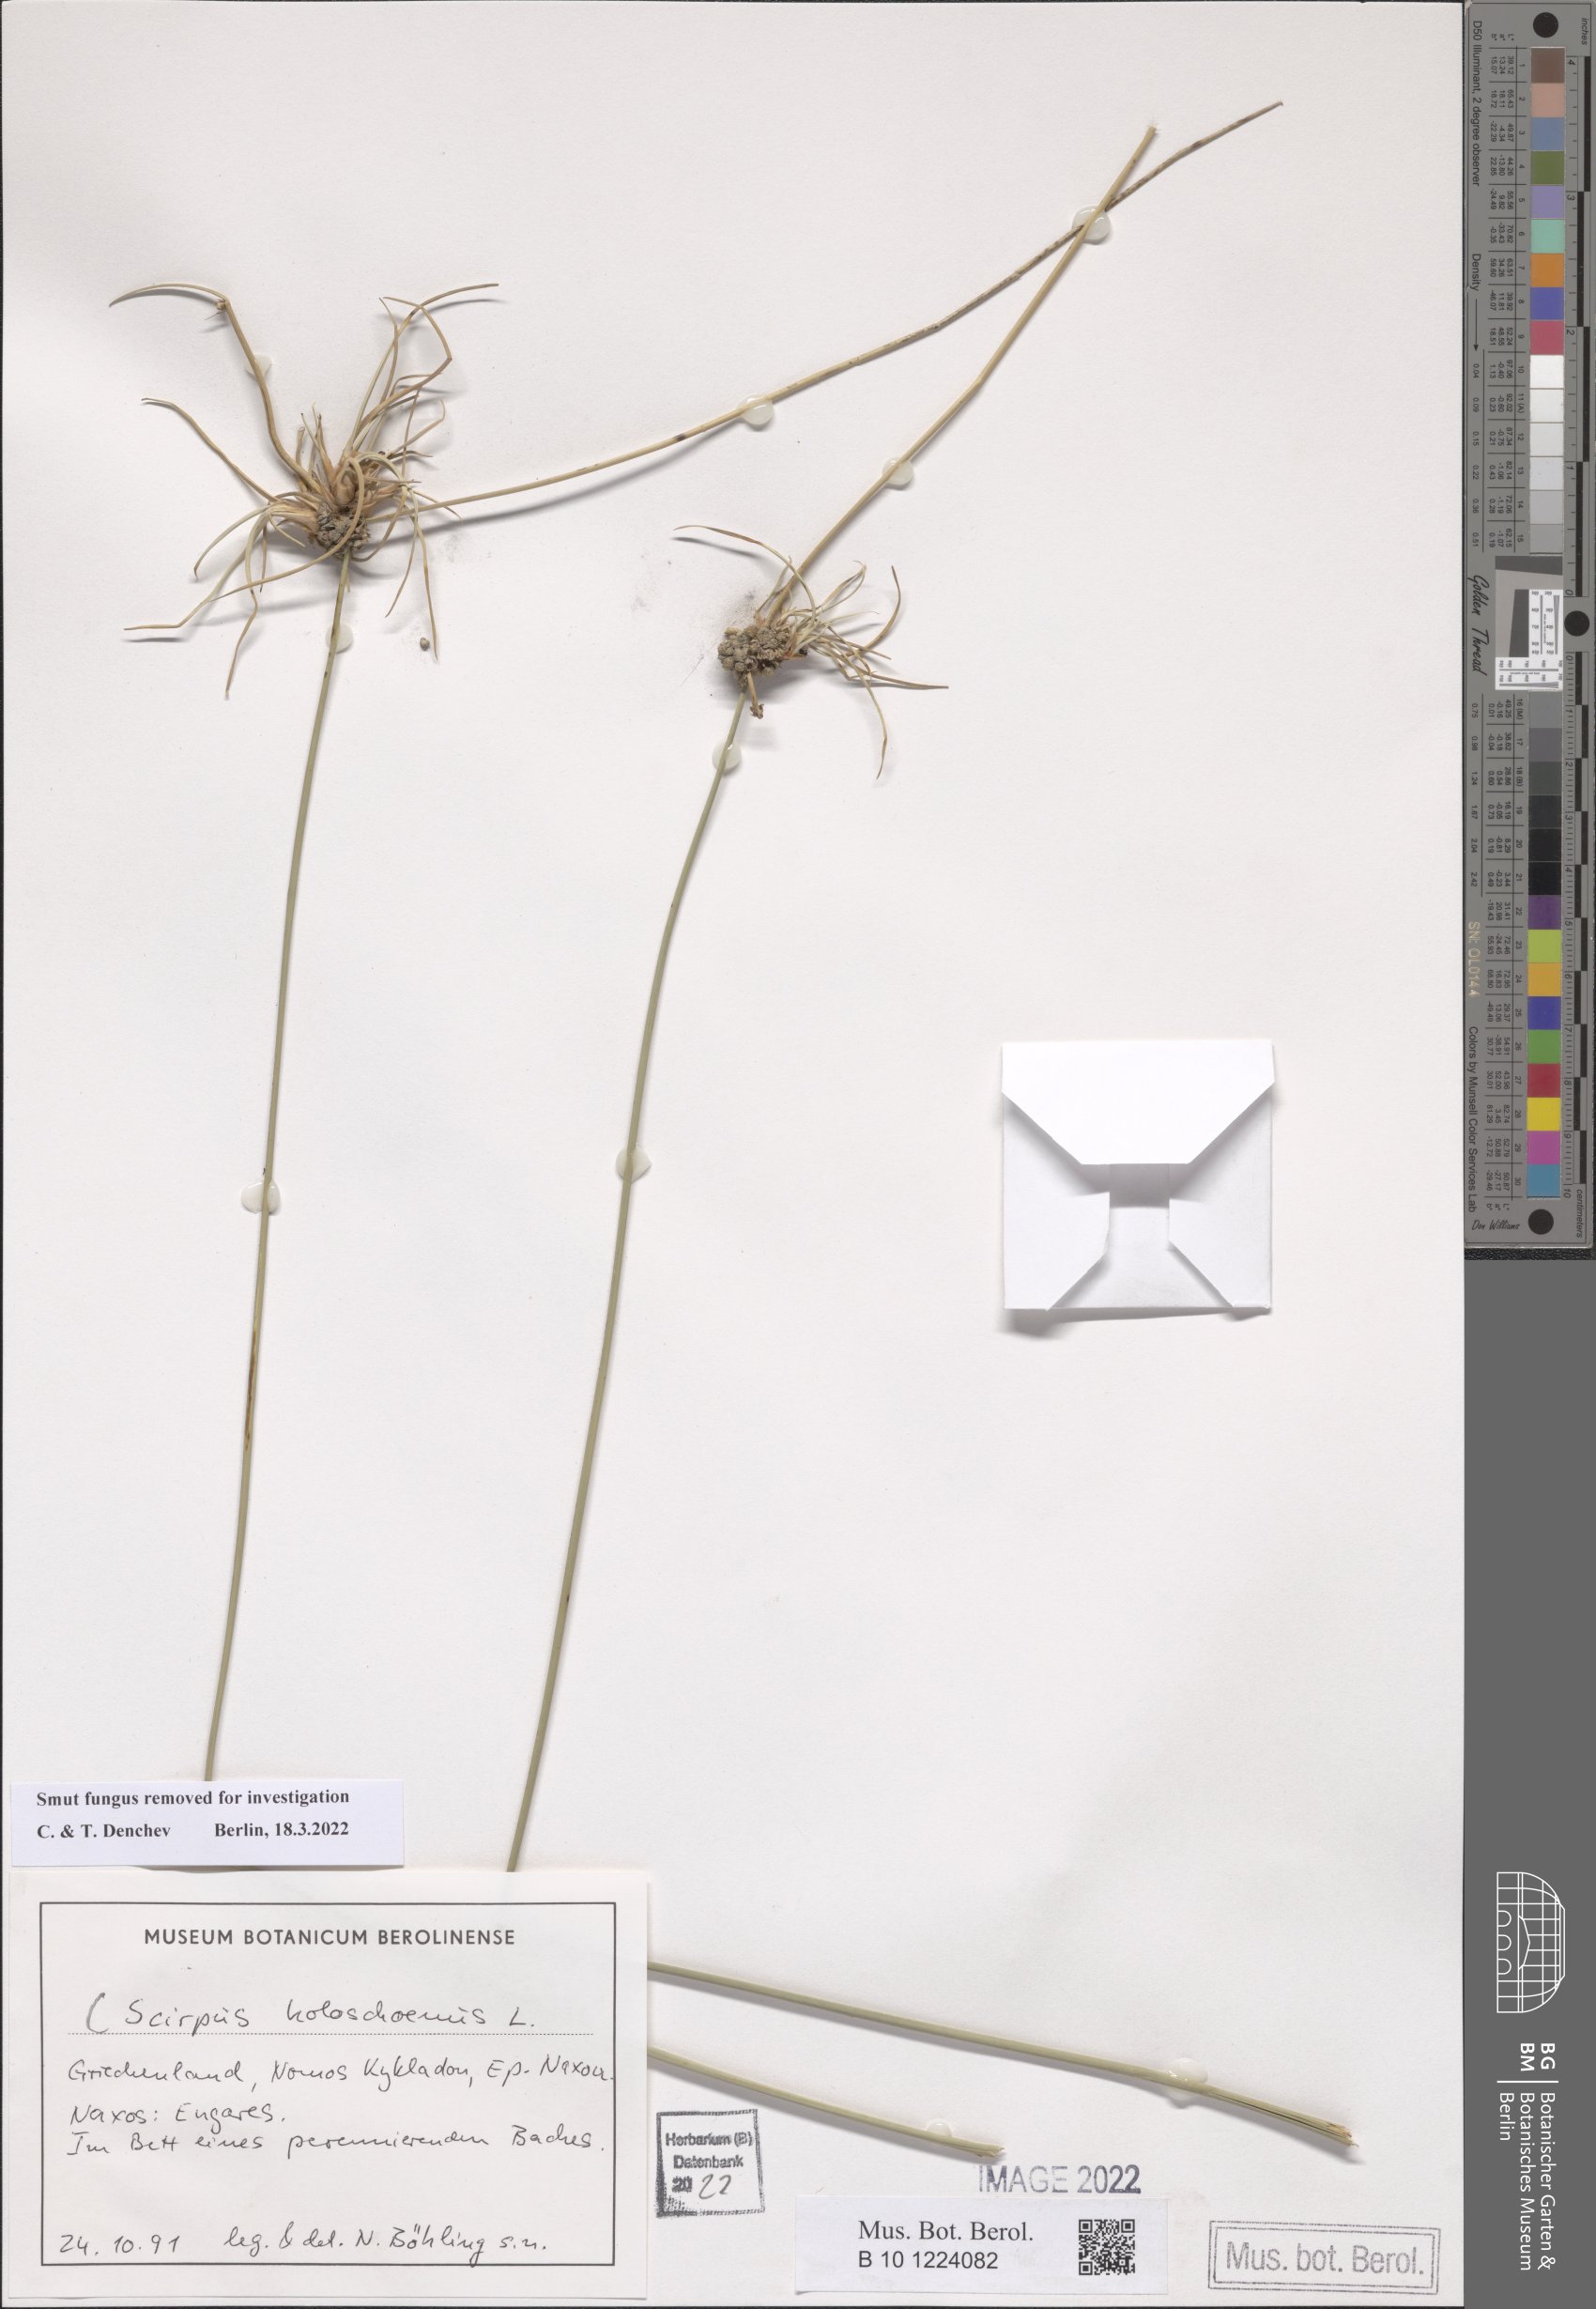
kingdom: Plantae
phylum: Tracheophyta
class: Liliopsida
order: Poales
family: Cyperaceae
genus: Scirpoides
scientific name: Scirpoides holoschoenus
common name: Round-headed club-rush
